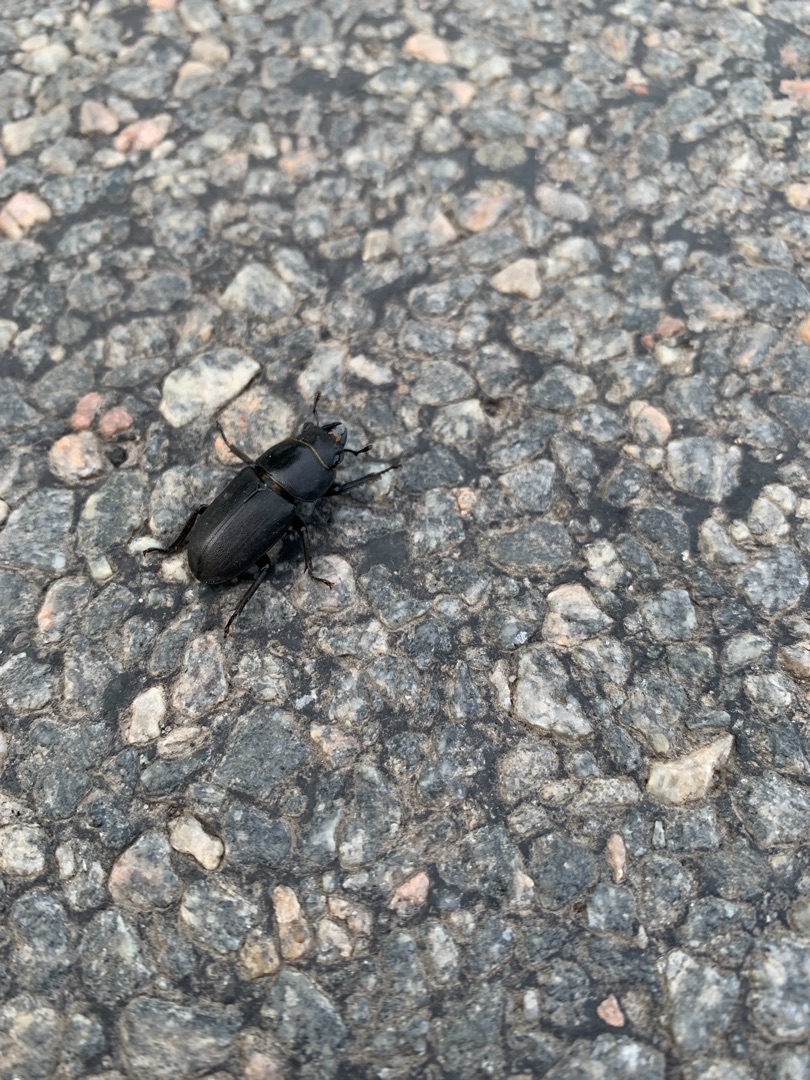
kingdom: Animalia
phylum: Arthropoda
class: Insecta
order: Coleoptera
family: Lucanidae
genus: Dorcus
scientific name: Dorcus parallelipipedus
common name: Bøghjort
